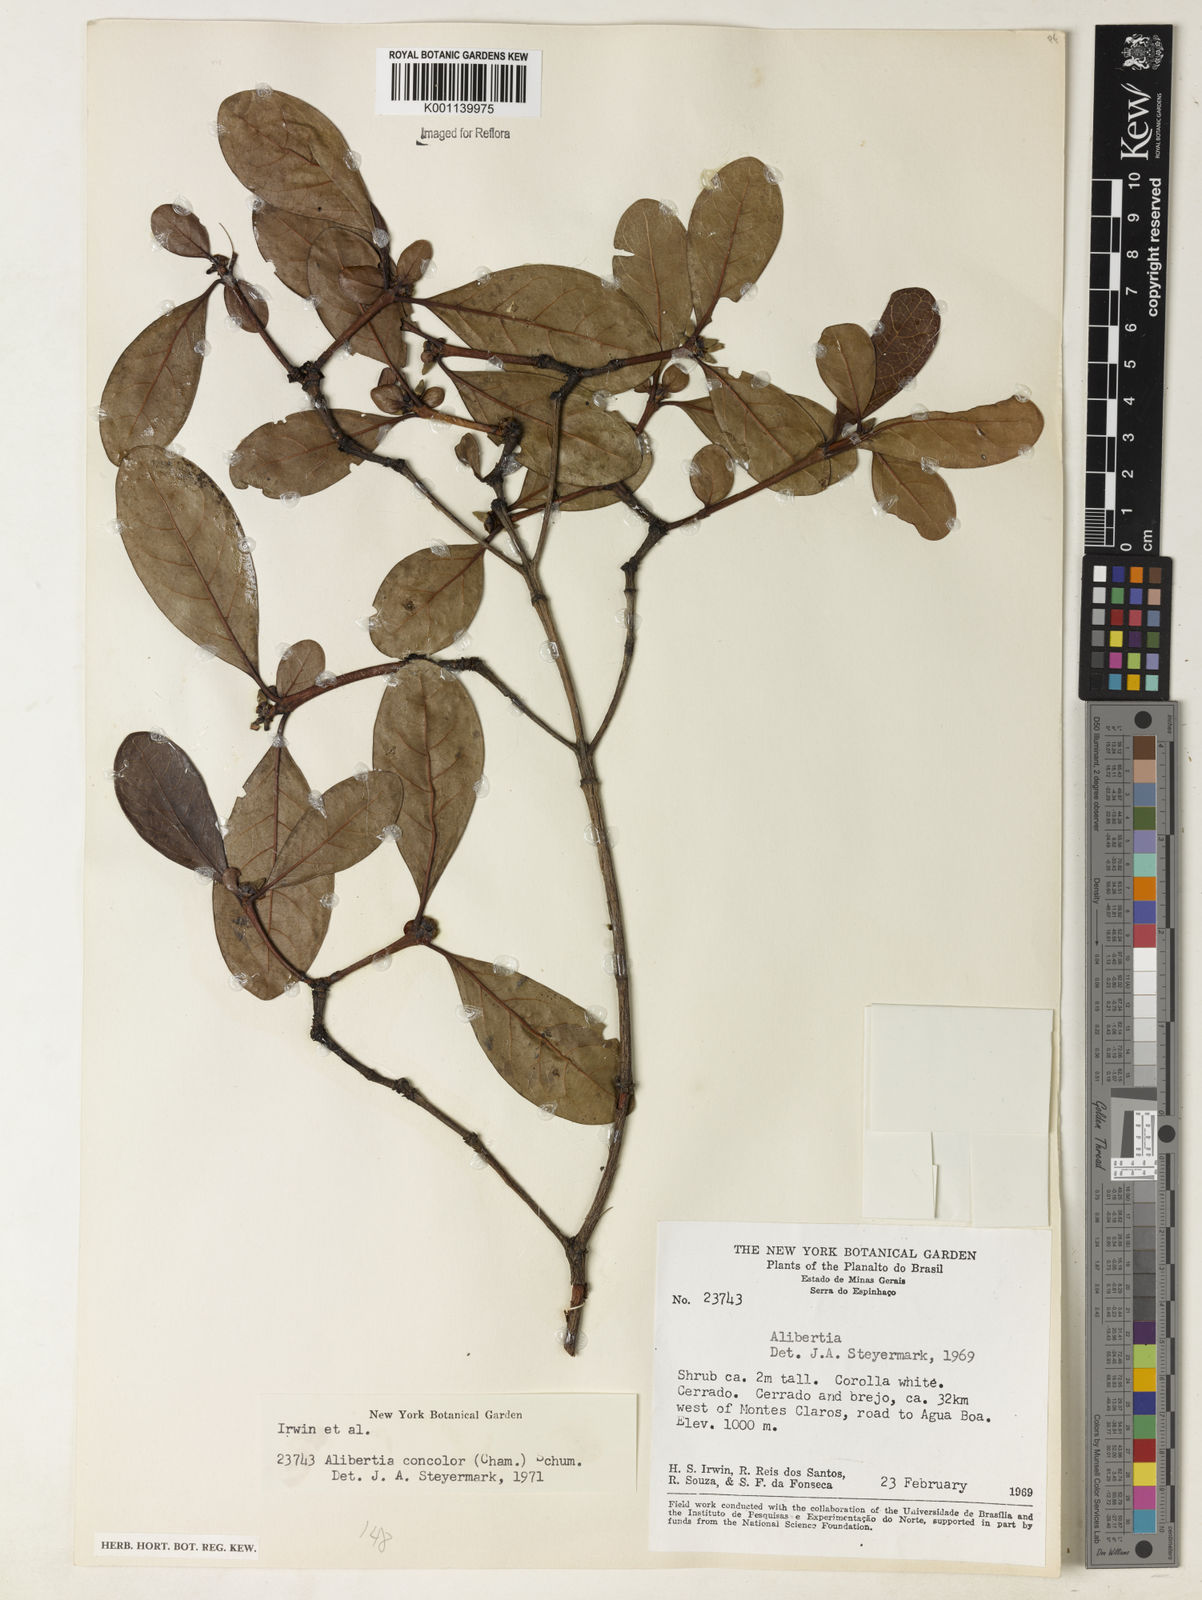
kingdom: Plantae
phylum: Tracheophyta
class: Magnoliopsida
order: Cucurbitales
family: Cucurbitaceae
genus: Gurania
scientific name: Gurania bignoniacea
